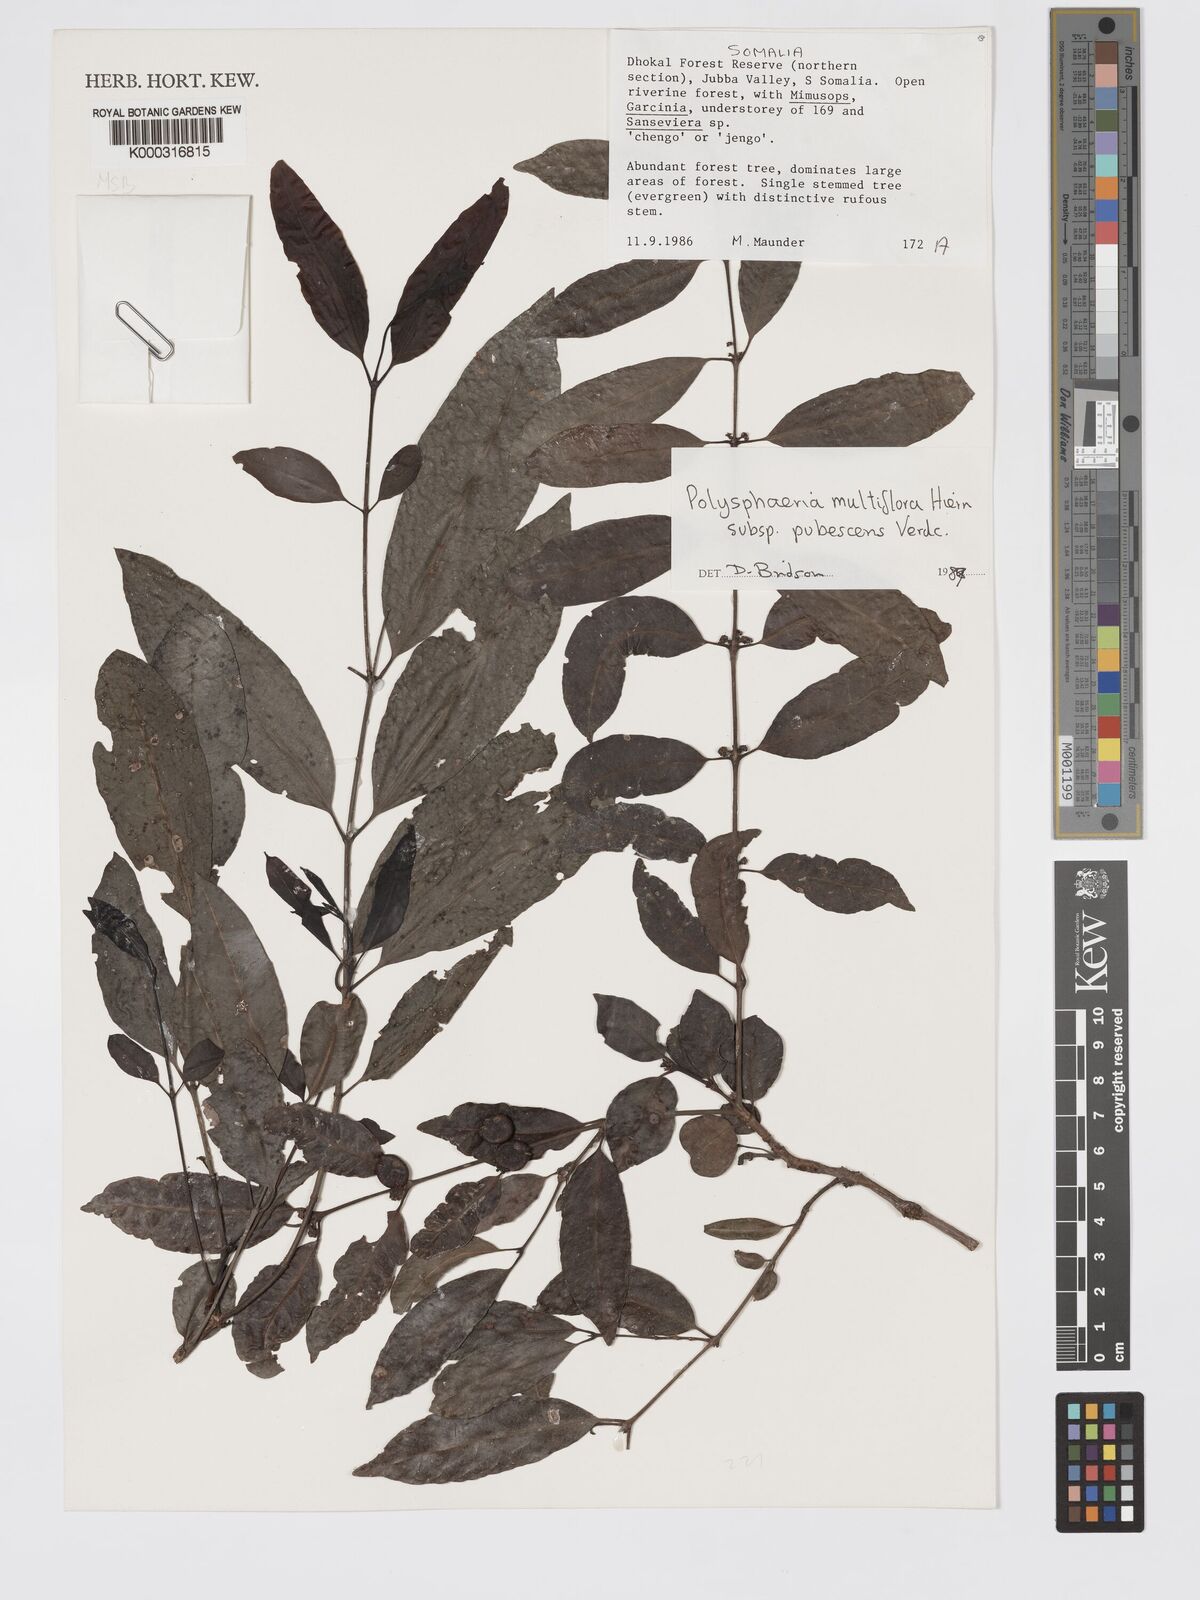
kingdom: Plantae
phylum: Tracheophyta
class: Magnoliopsida
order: Gentianales
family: Rubiaceae
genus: Polysphaeria
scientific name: Polysphaeria multiflora
